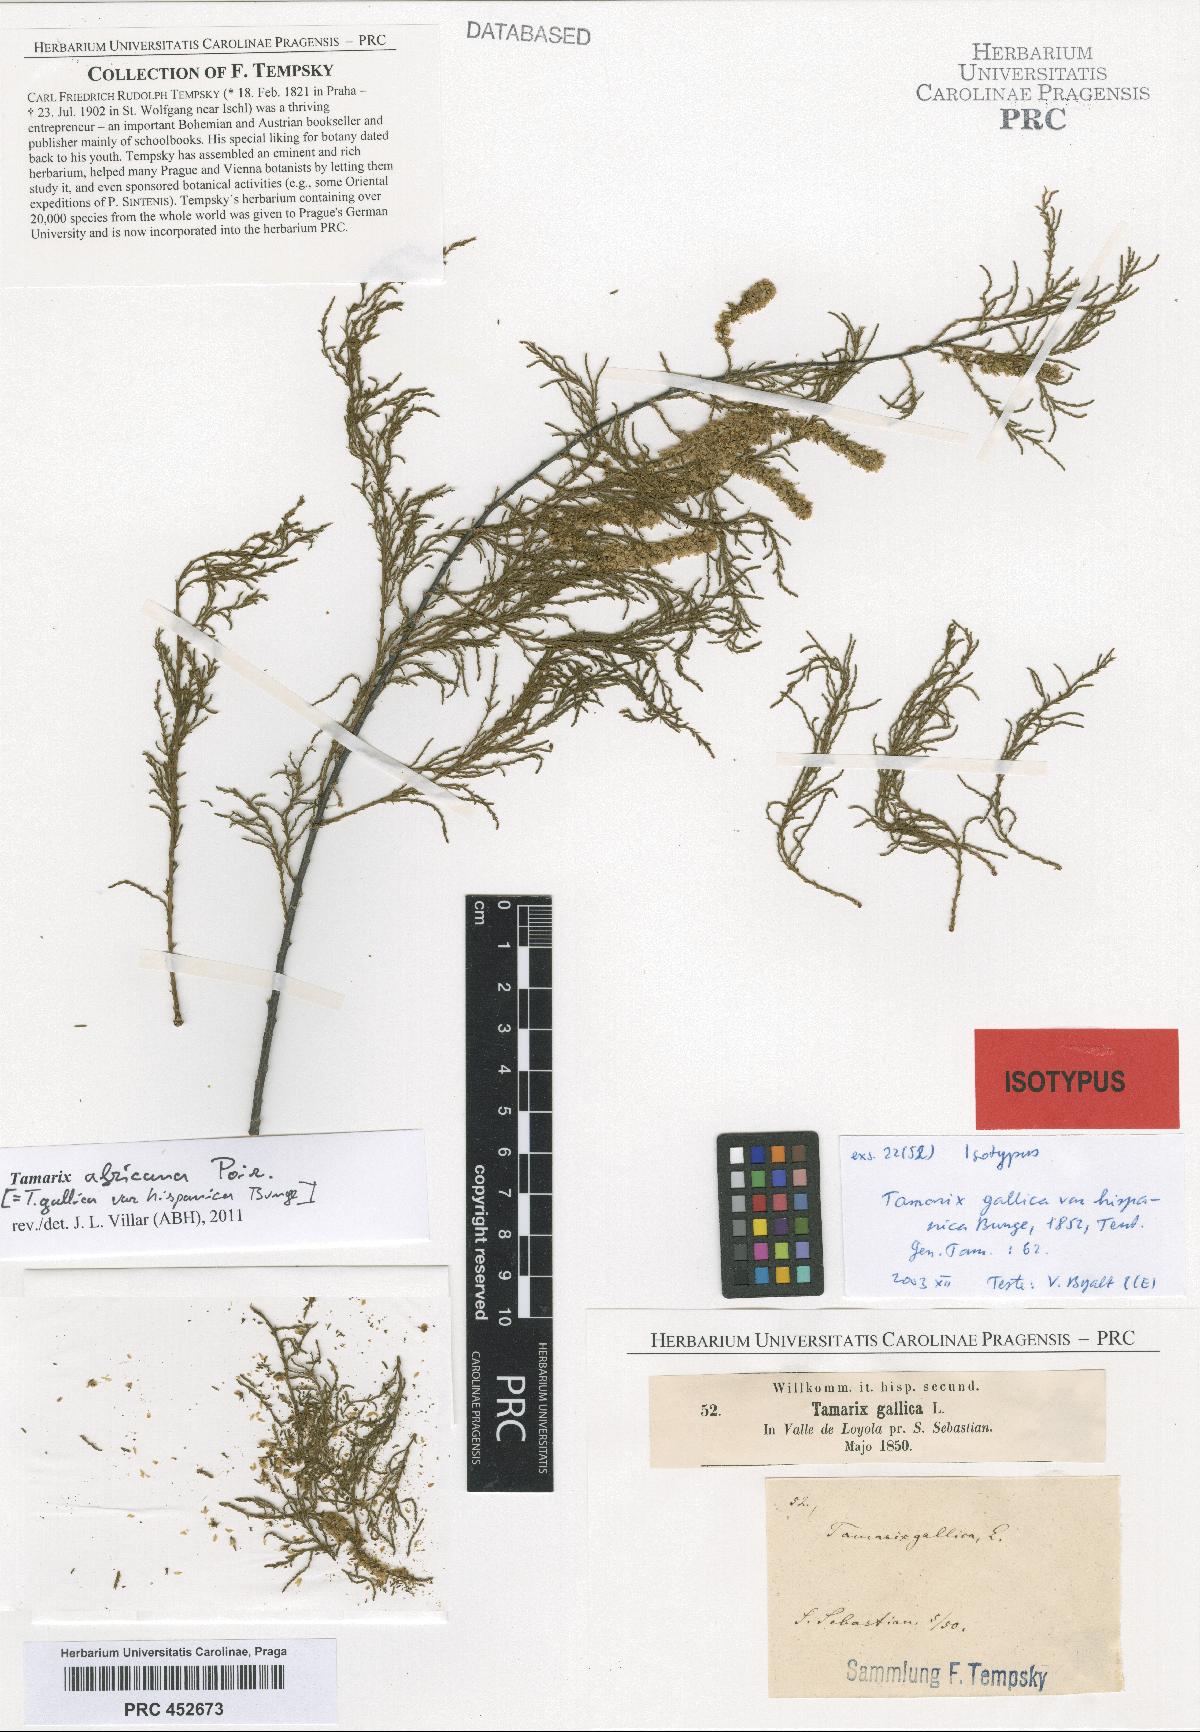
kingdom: Plantae
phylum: Tracheophyta
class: Magnoliopsida
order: Caryophyllales
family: Tamaricaceae
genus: Tamarix
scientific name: Tamarix gallica
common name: Tamarisk
